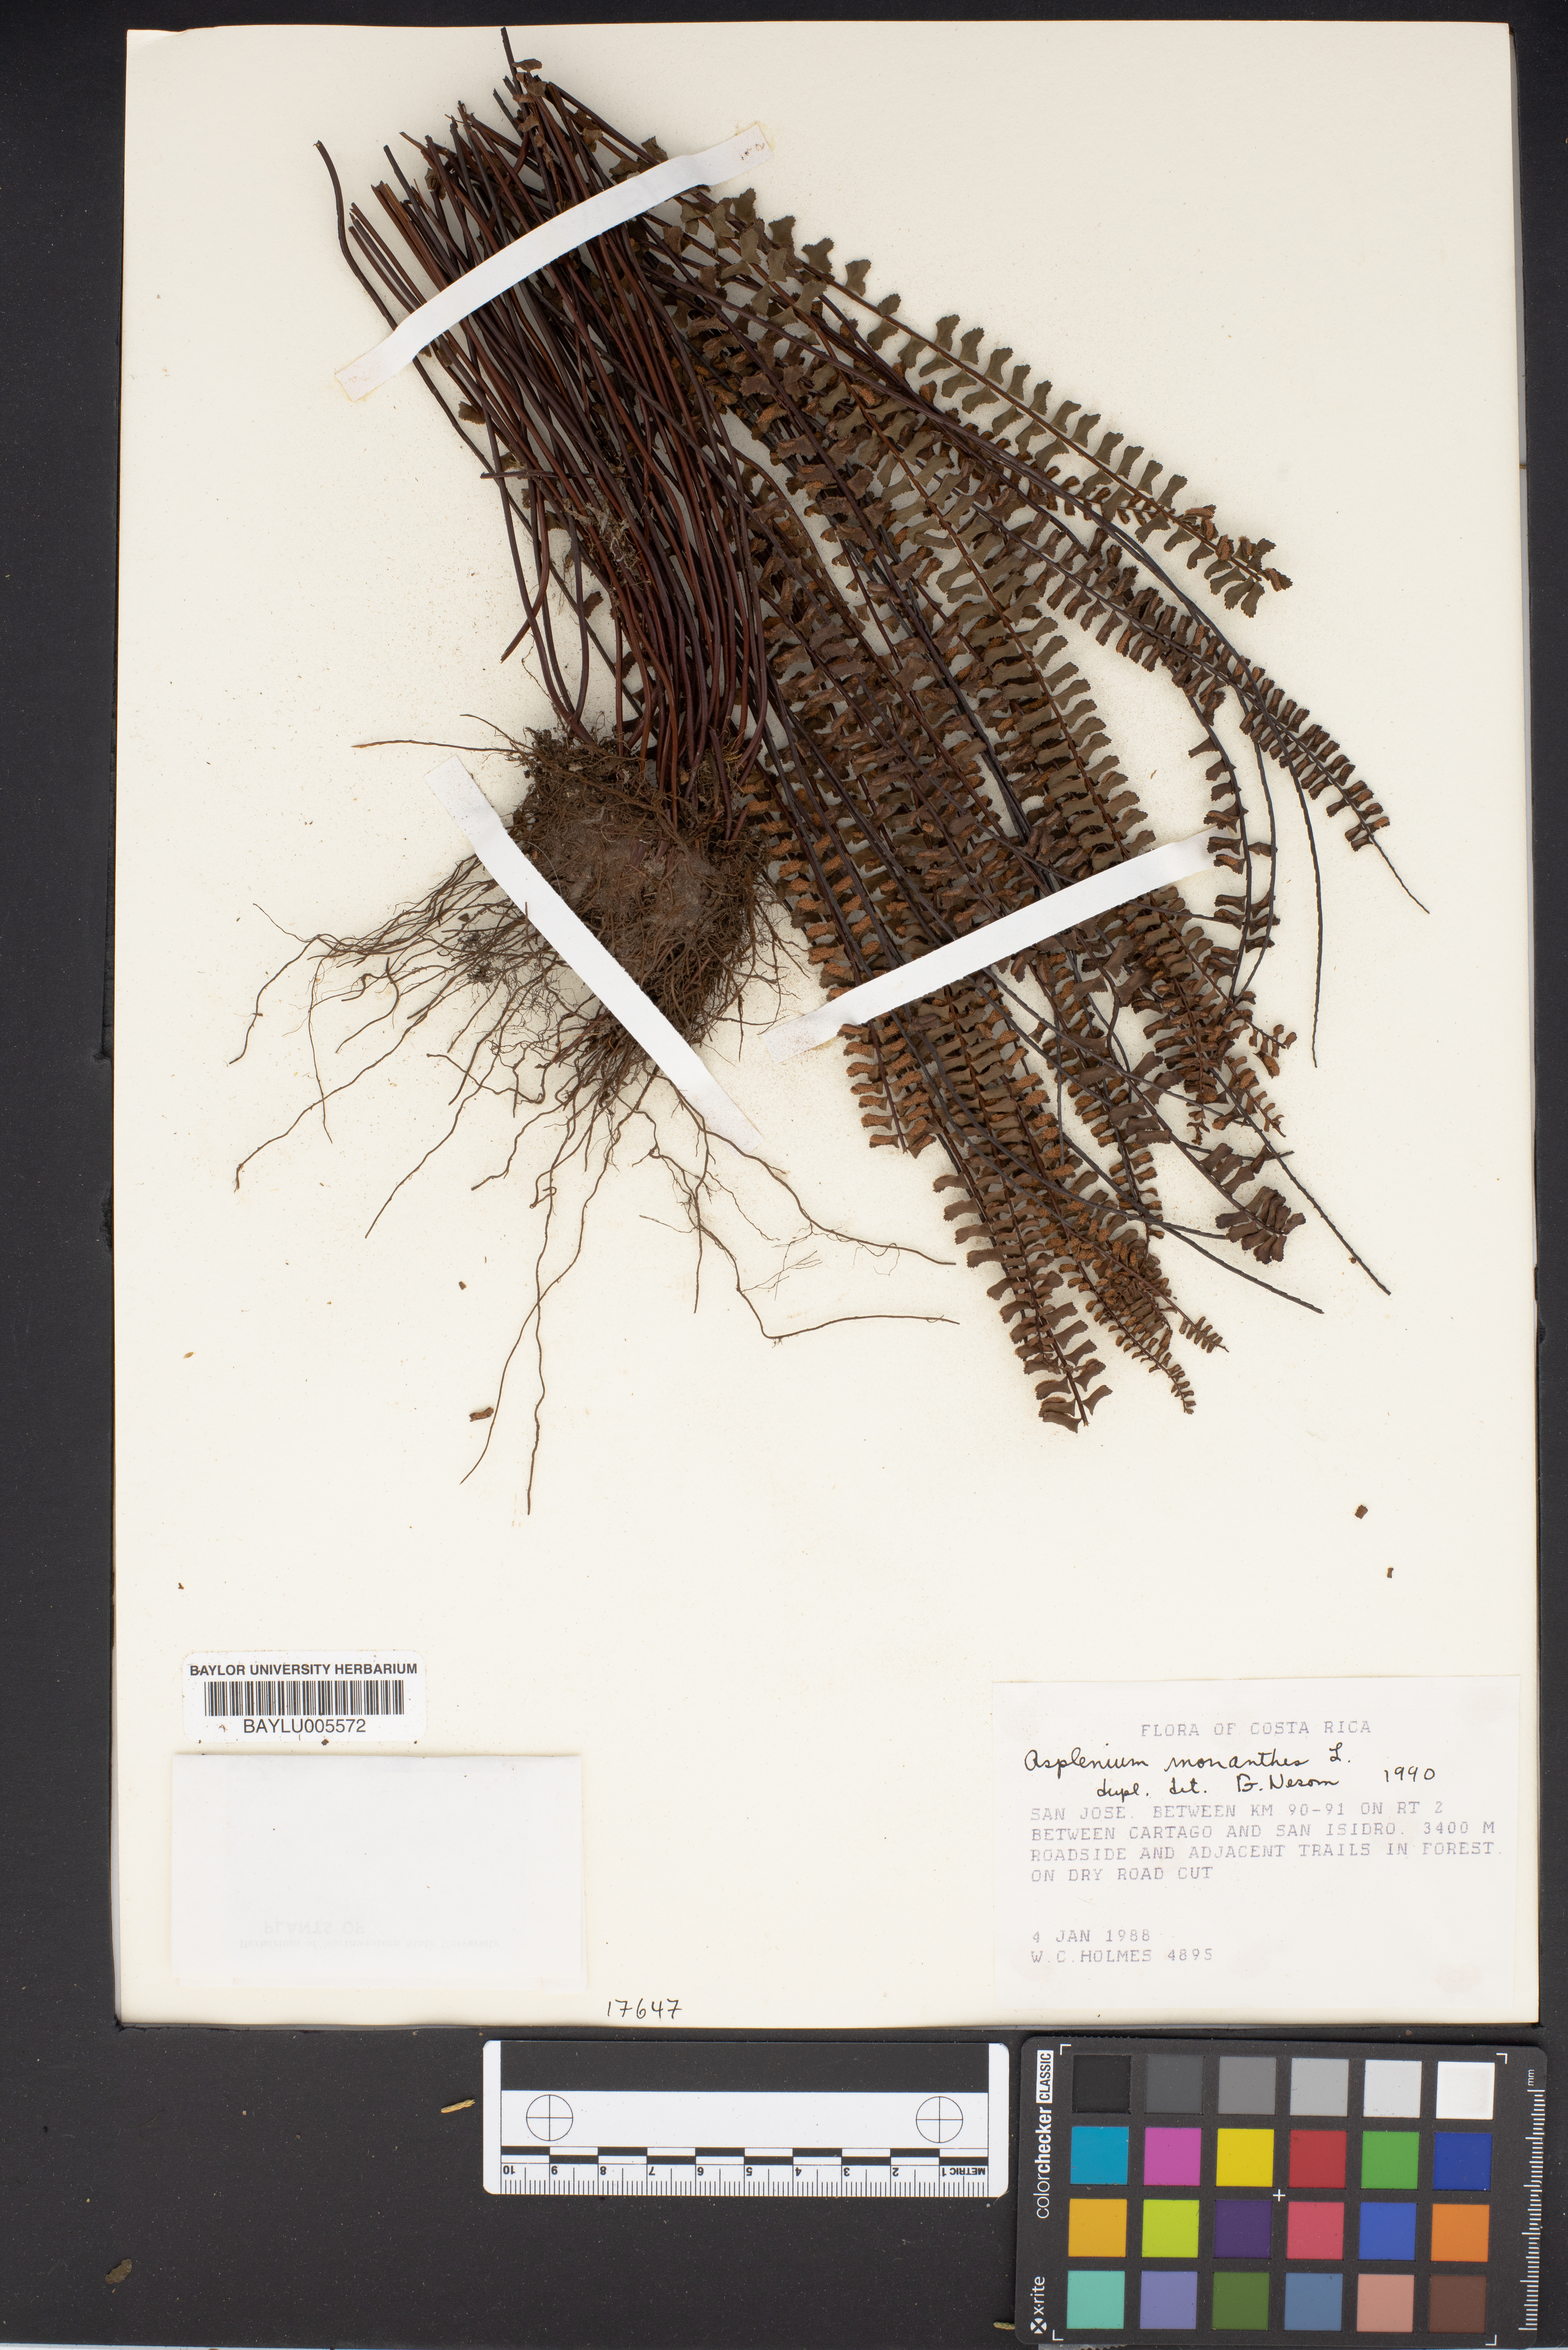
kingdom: Plantae
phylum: Tracheophyta
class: Polypodiopsida
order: Polypodiales
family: Aspleniaceae
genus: Asplenium
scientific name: Asplenium monanthes
